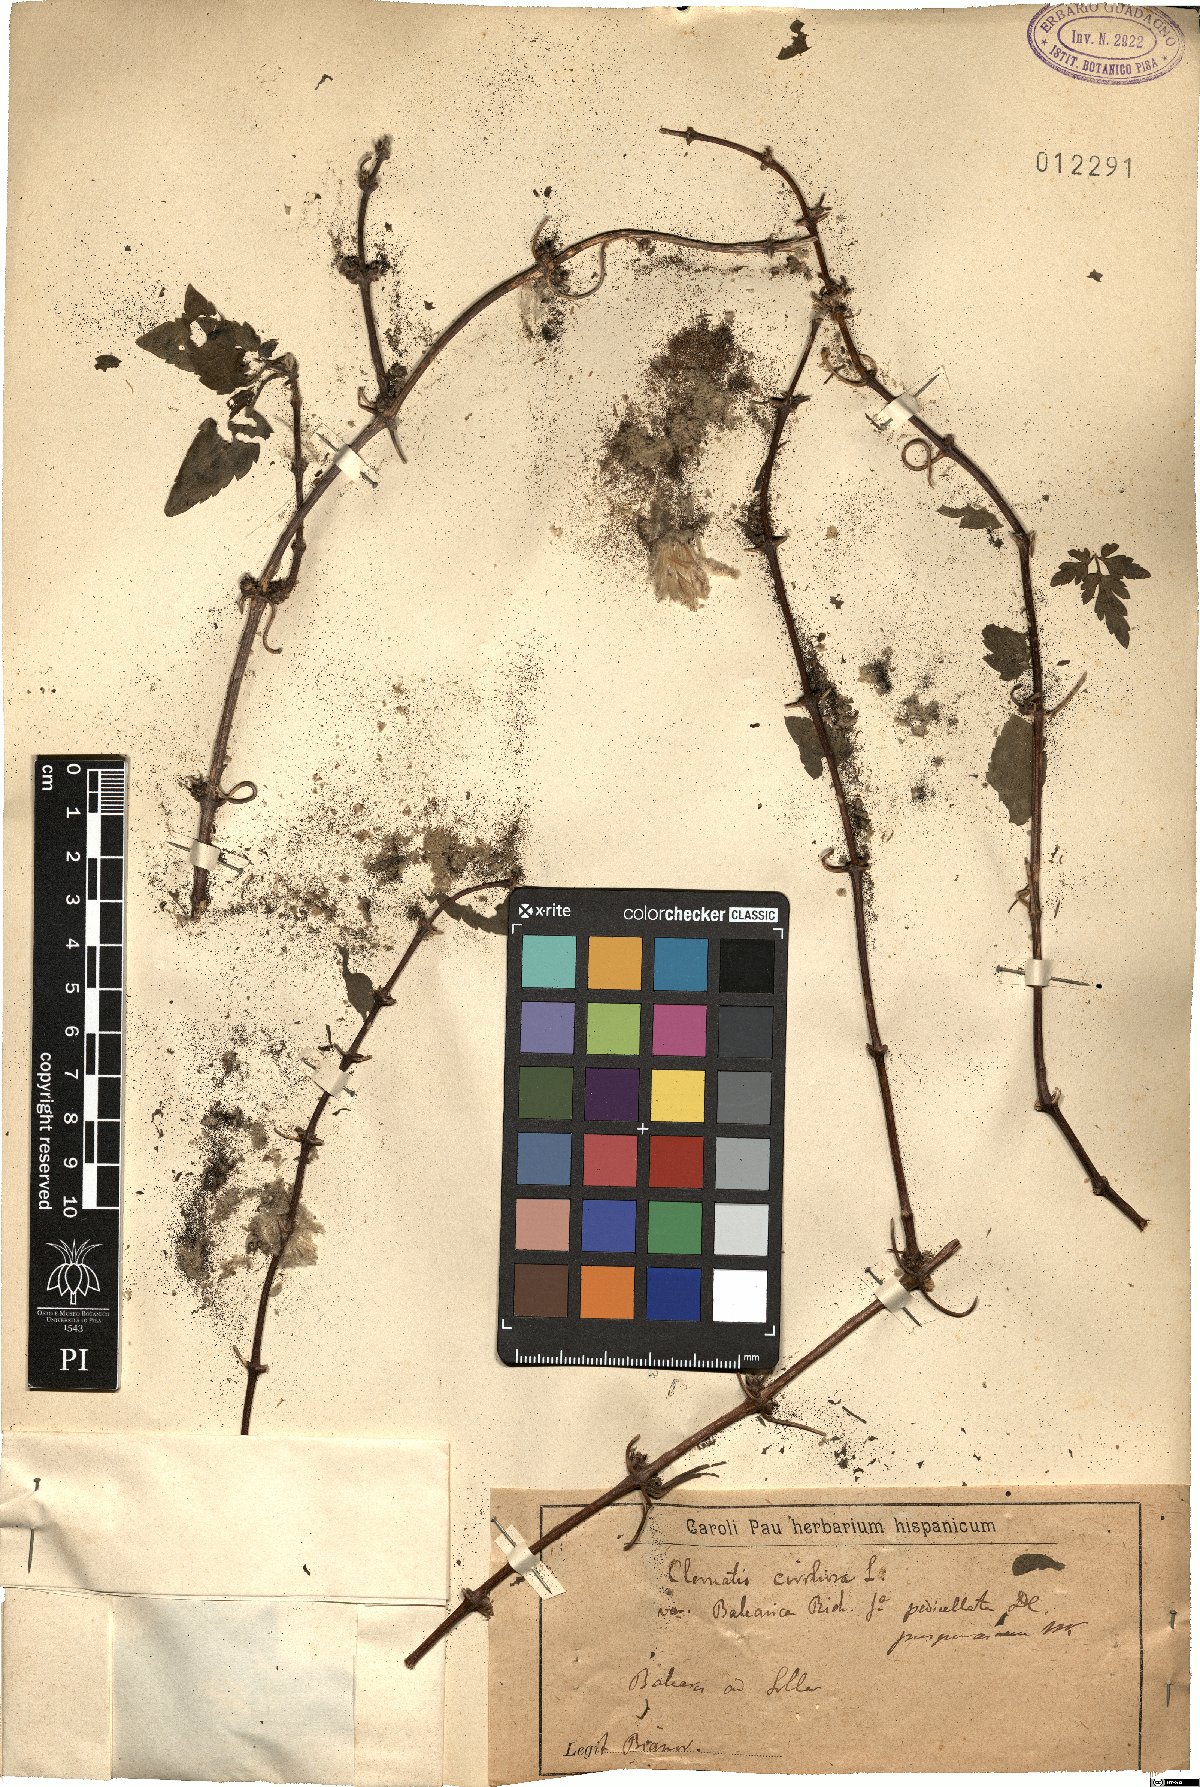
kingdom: Plantae
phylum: Tracheophyta
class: Magnoliopsida
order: Ranunculales
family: Ranunculaceae
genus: Clematis
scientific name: Clematis cirrhosa
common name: Early virgin's-bower
